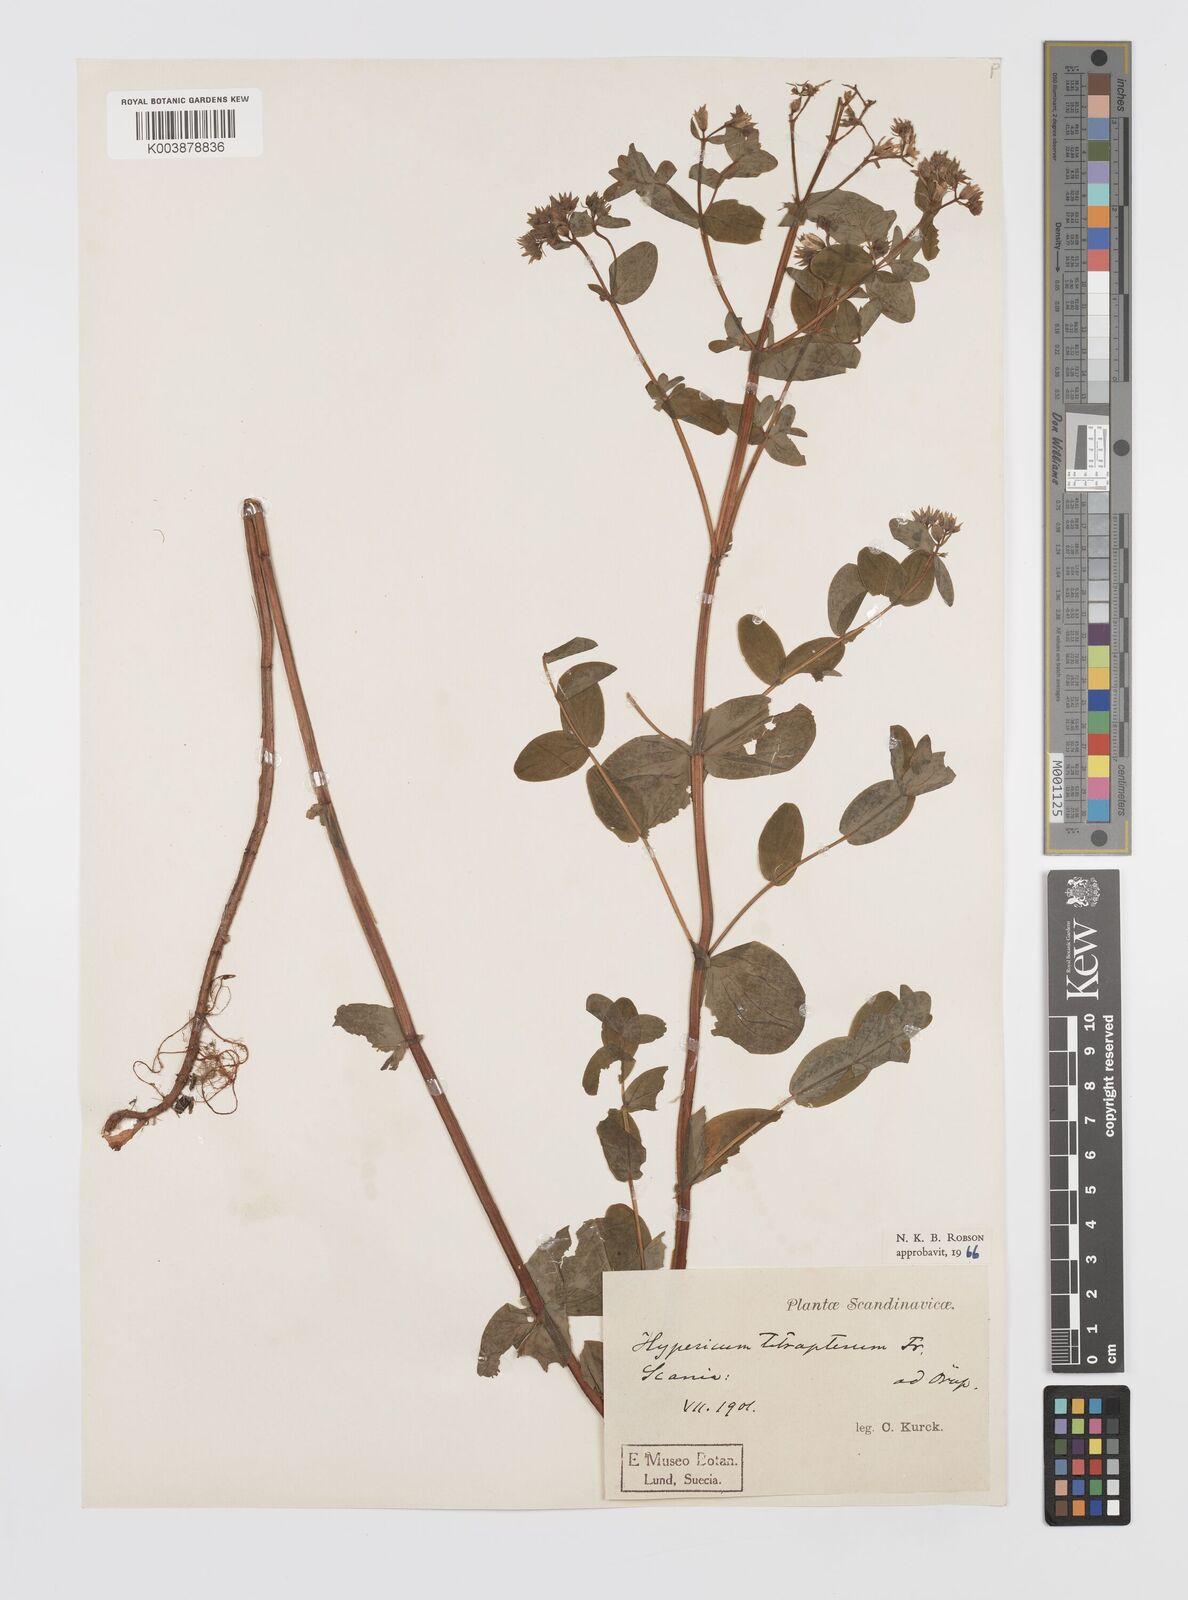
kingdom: Plantae
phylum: Tracheophyta
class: Magnoliopsida
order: Malpighiales
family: Hypericaceae
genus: Hypericum
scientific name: Hypericum tetrapterum
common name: Square-stalked st. john's-wort
